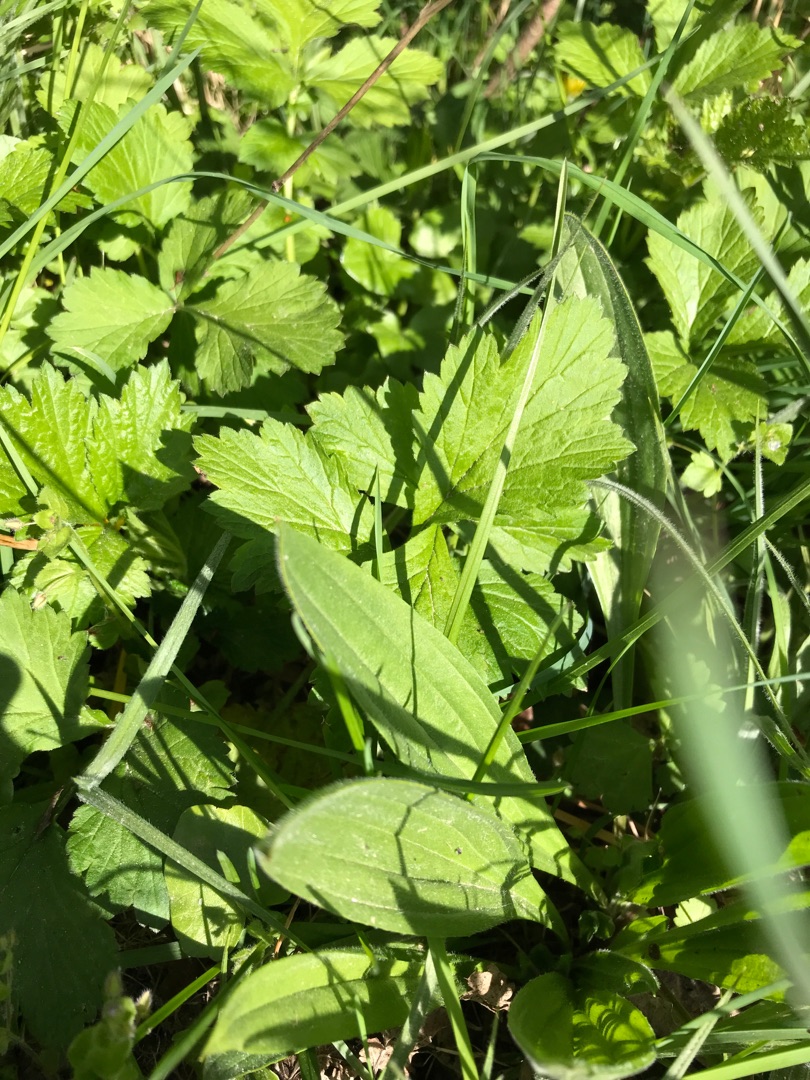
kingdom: Plantae
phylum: Tracheophyta
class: Magnoliopsida
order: Rosales
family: Rosaceae
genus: Geum
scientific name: Geum urbanum
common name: Feber-nellikerod
